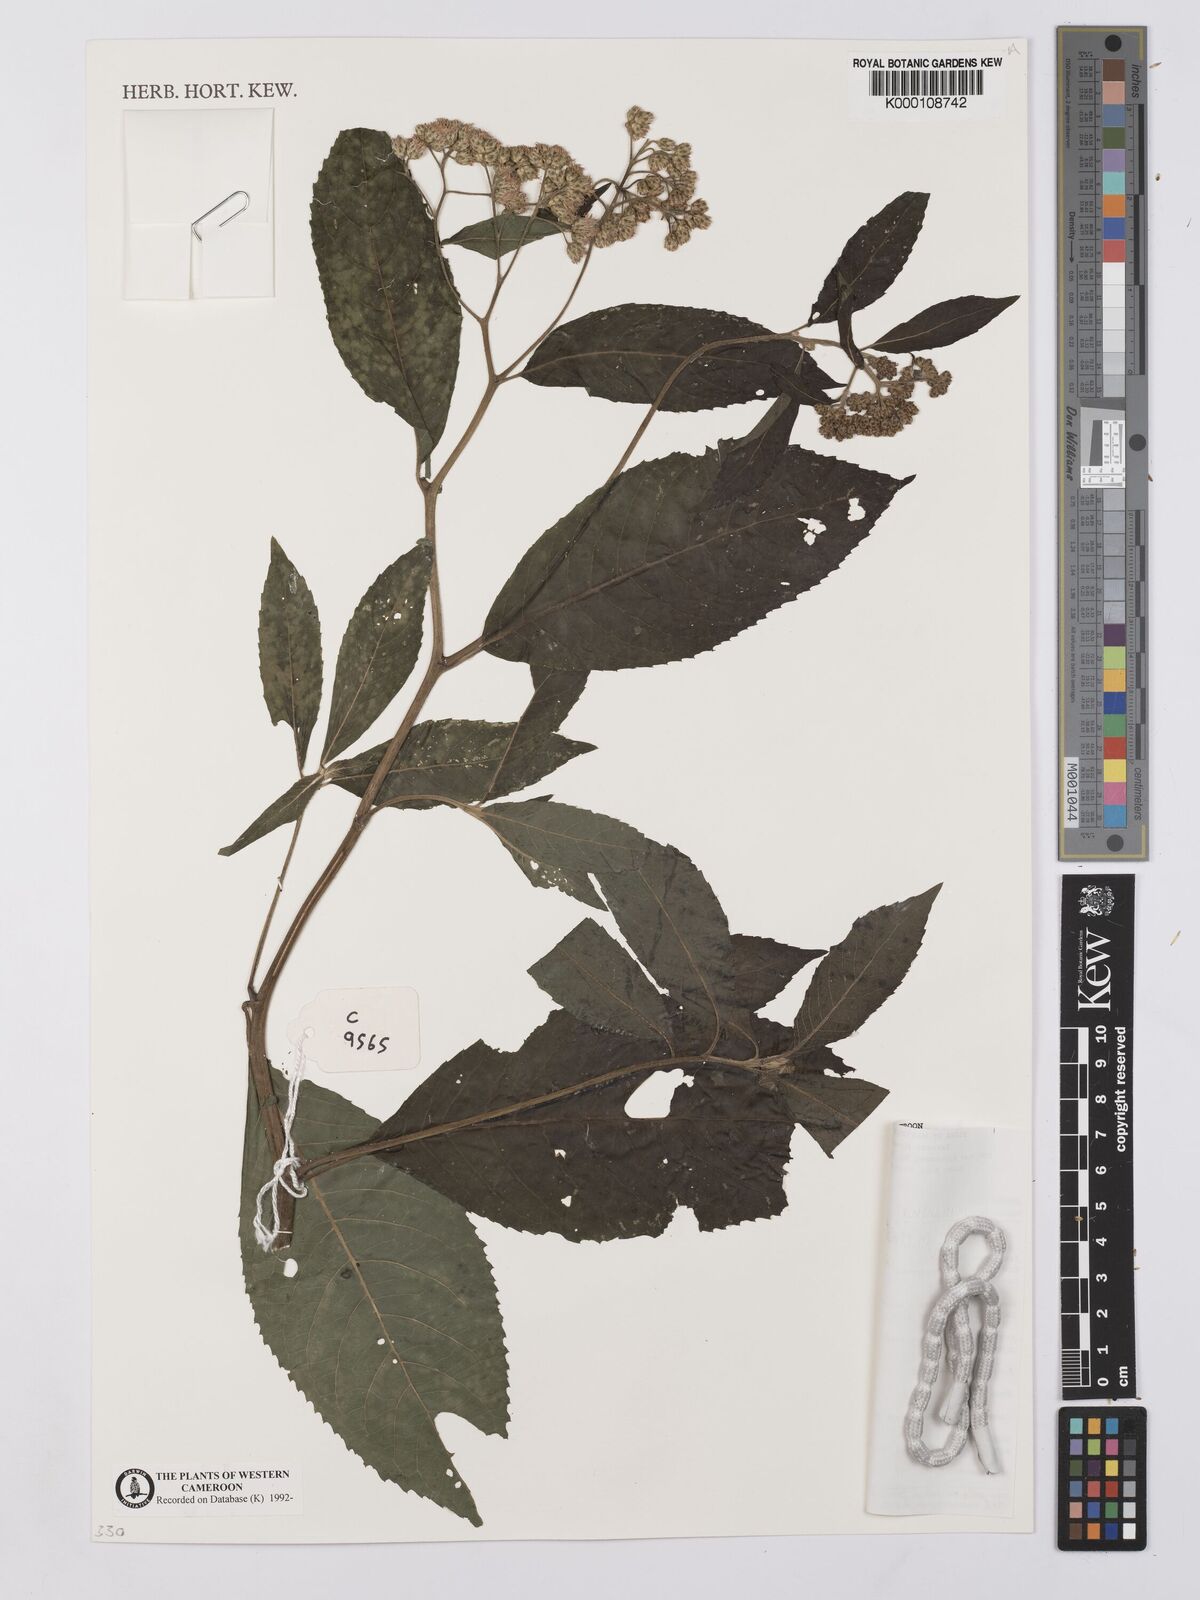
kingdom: Plantae
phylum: Tracheophyta
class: Magnoliopsida
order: Asterales
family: Asteraceae
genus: Gymnanthemum
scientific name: Gymnanthemum myrianthum
